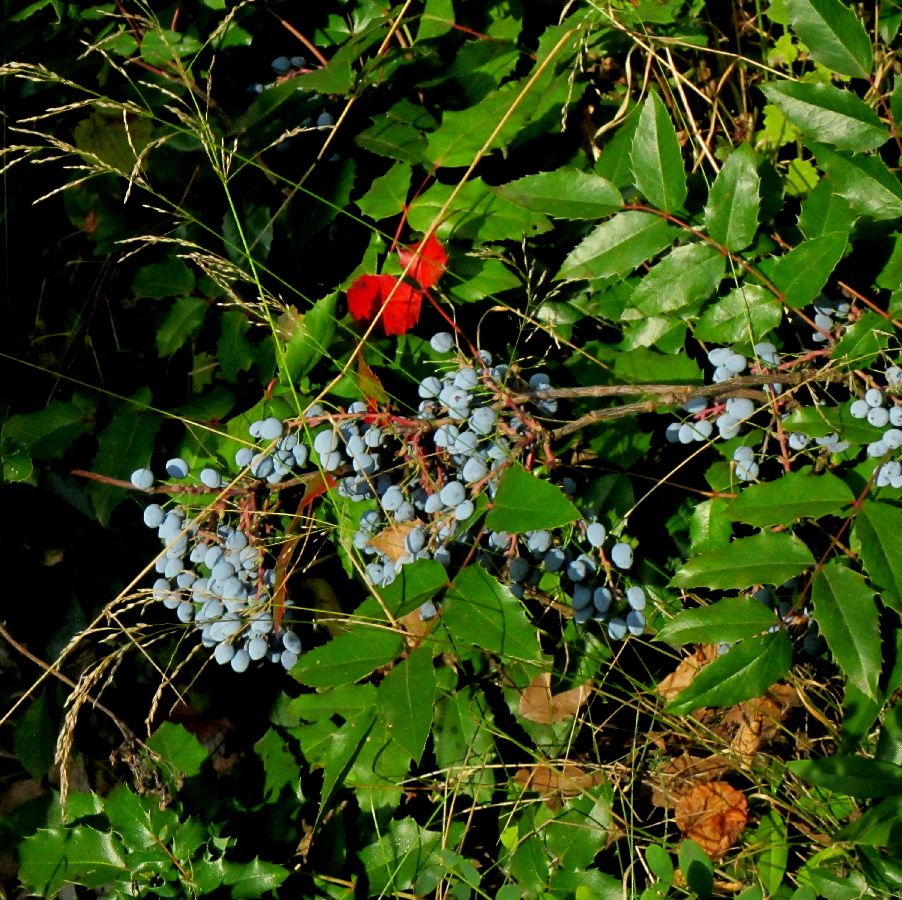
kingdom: Plantae
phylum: Tracheophyta
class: Magnoliopsida
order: Ranunculales
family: Berberidaceae
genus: Mahonia
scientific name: Mahonia aquifolium
